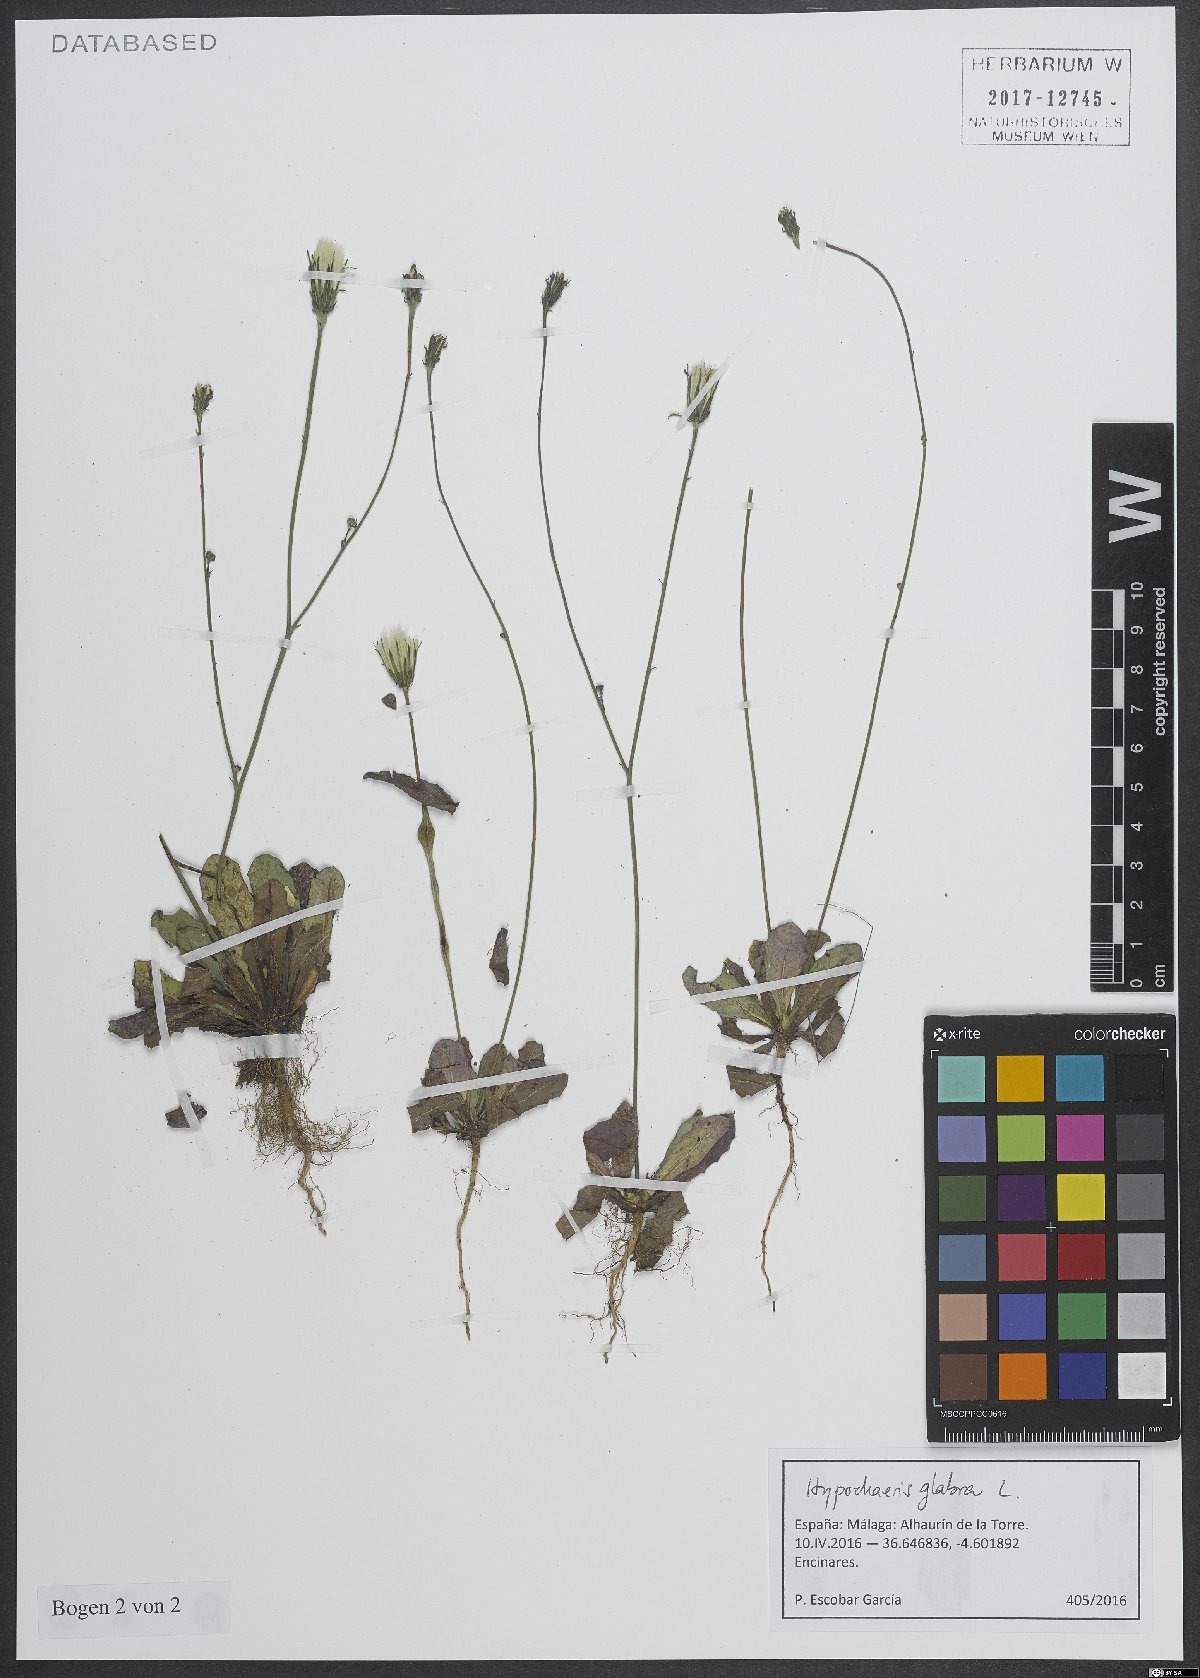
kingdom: Plantae
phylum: Tracheophyta
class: Magnoliopsida
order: Asterales
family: Asteraceae
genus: Hypochaeris
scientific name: Hypochaeris glabra
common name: Smooth catsear
